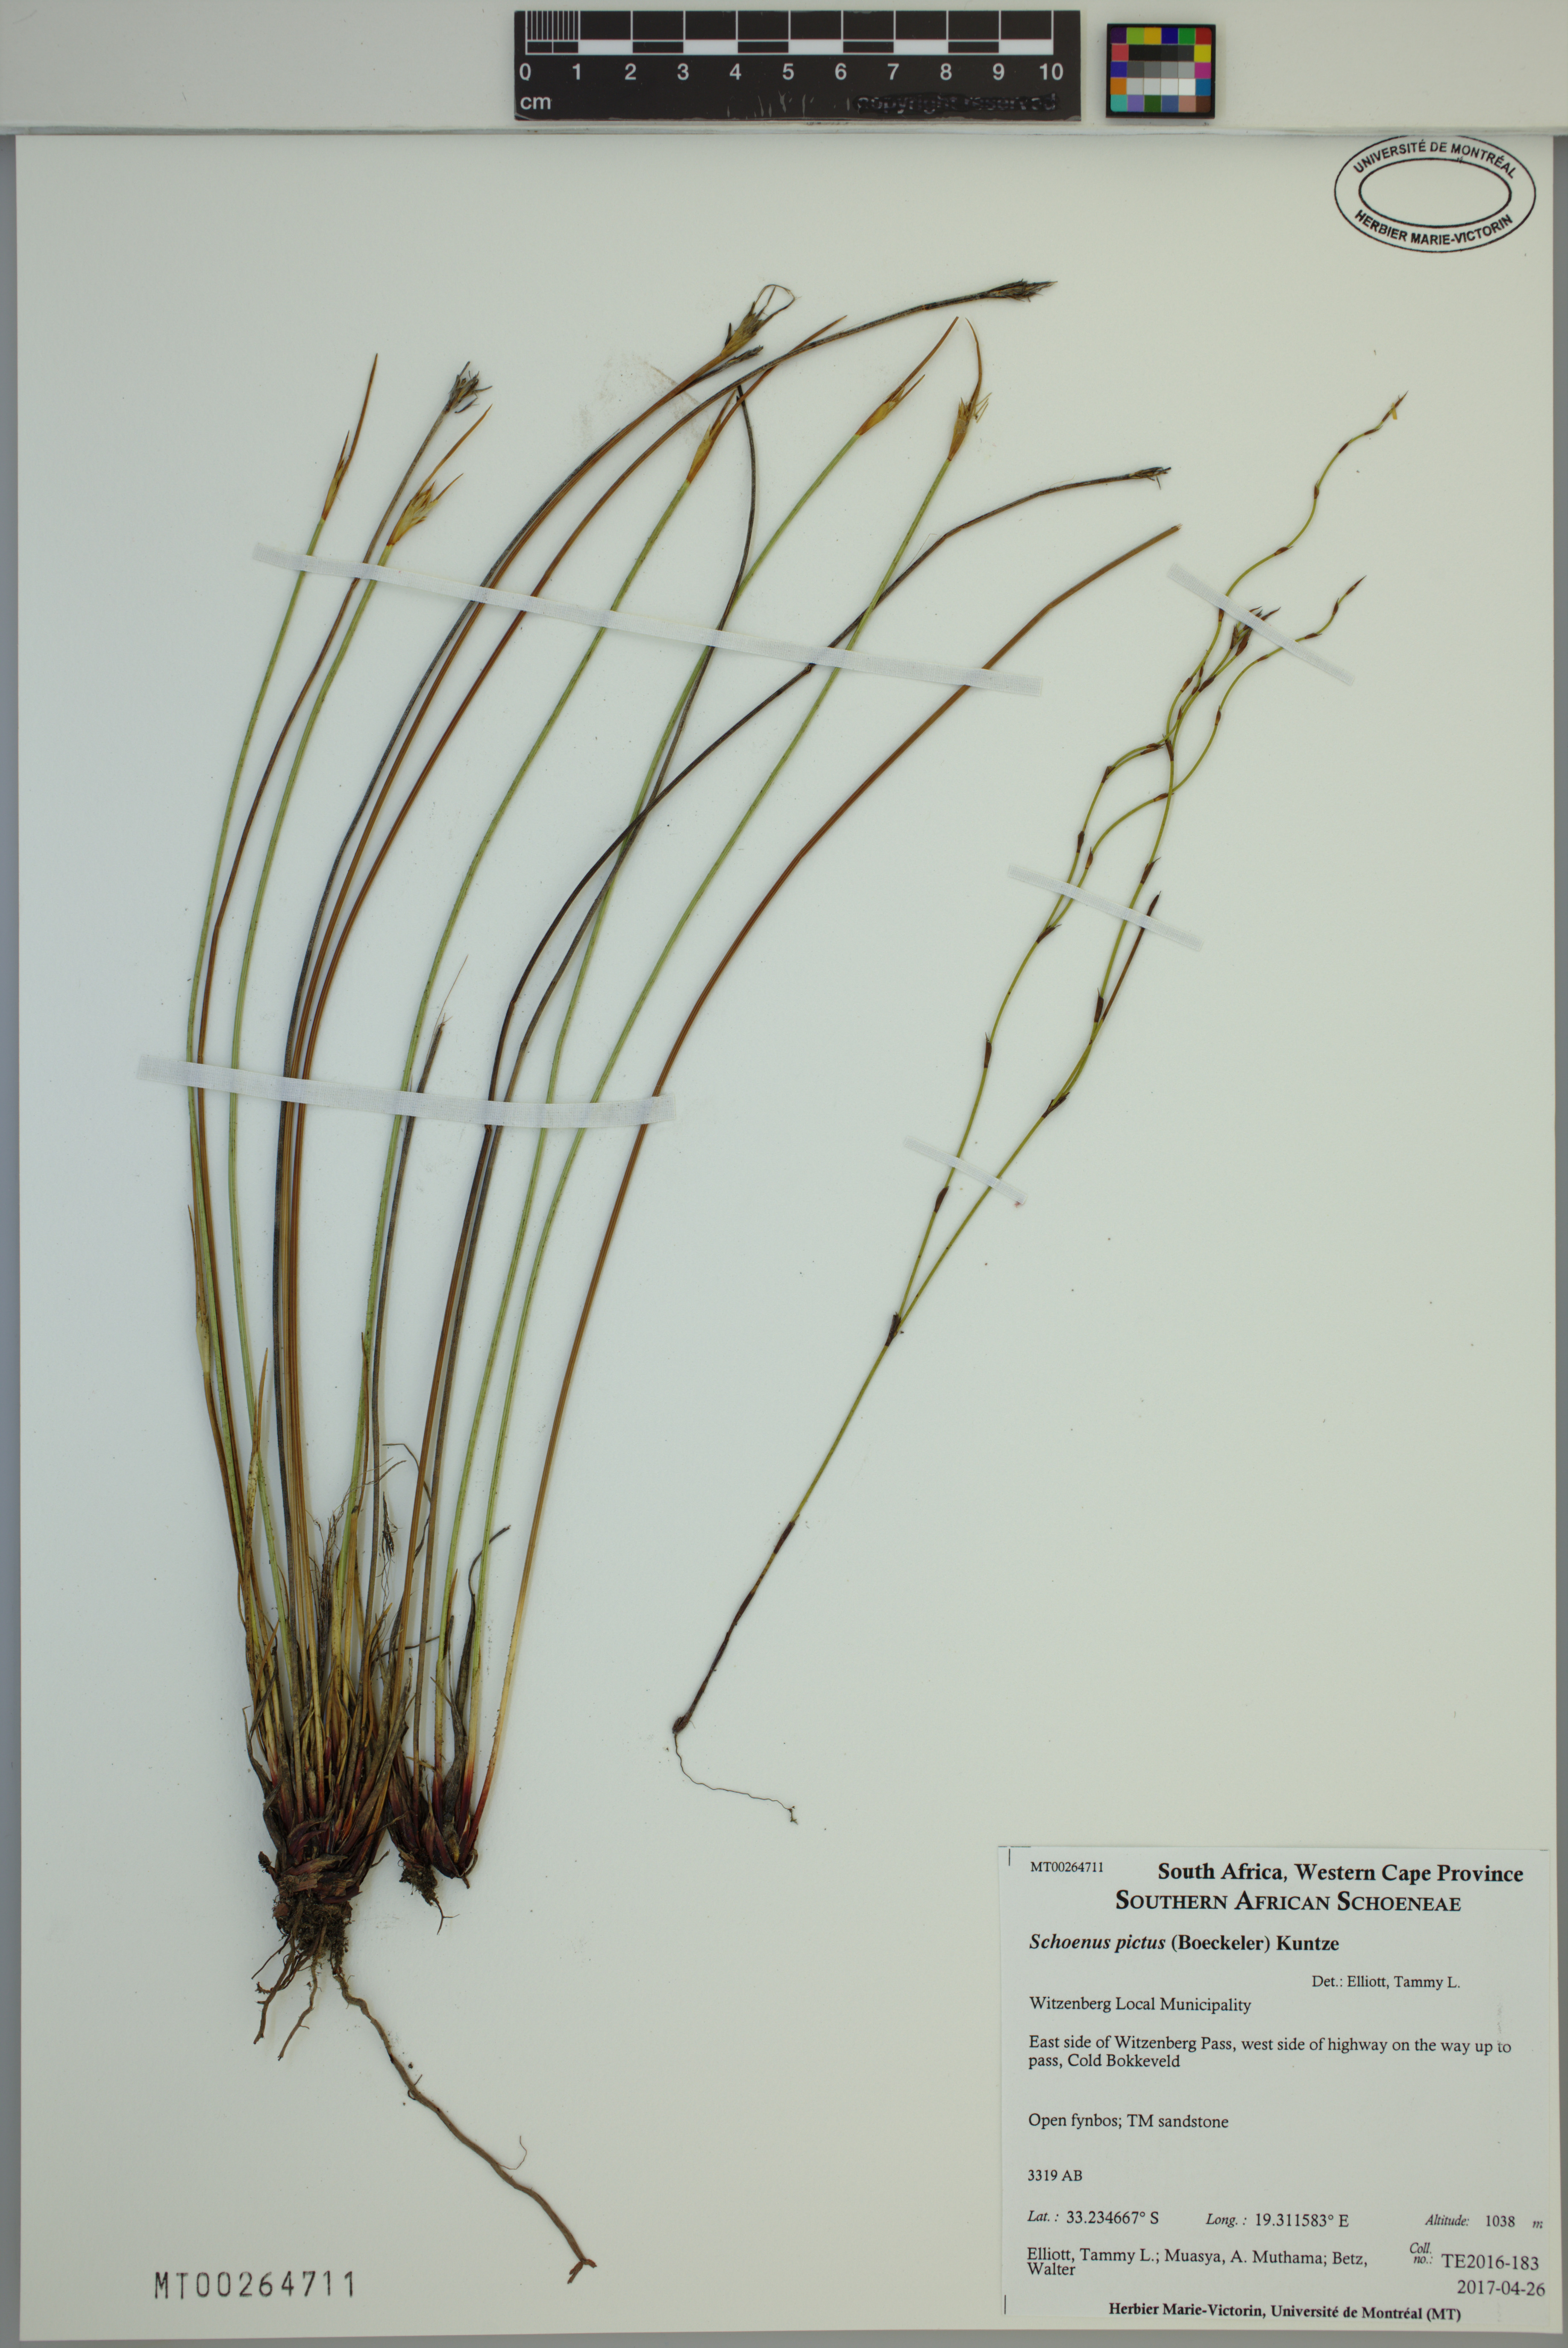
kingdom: Plantae
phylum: Tracheophyta
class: Liliopsida
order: Poales
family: Cyperaceae
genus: Schoenus
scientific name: Schoenus pictus
